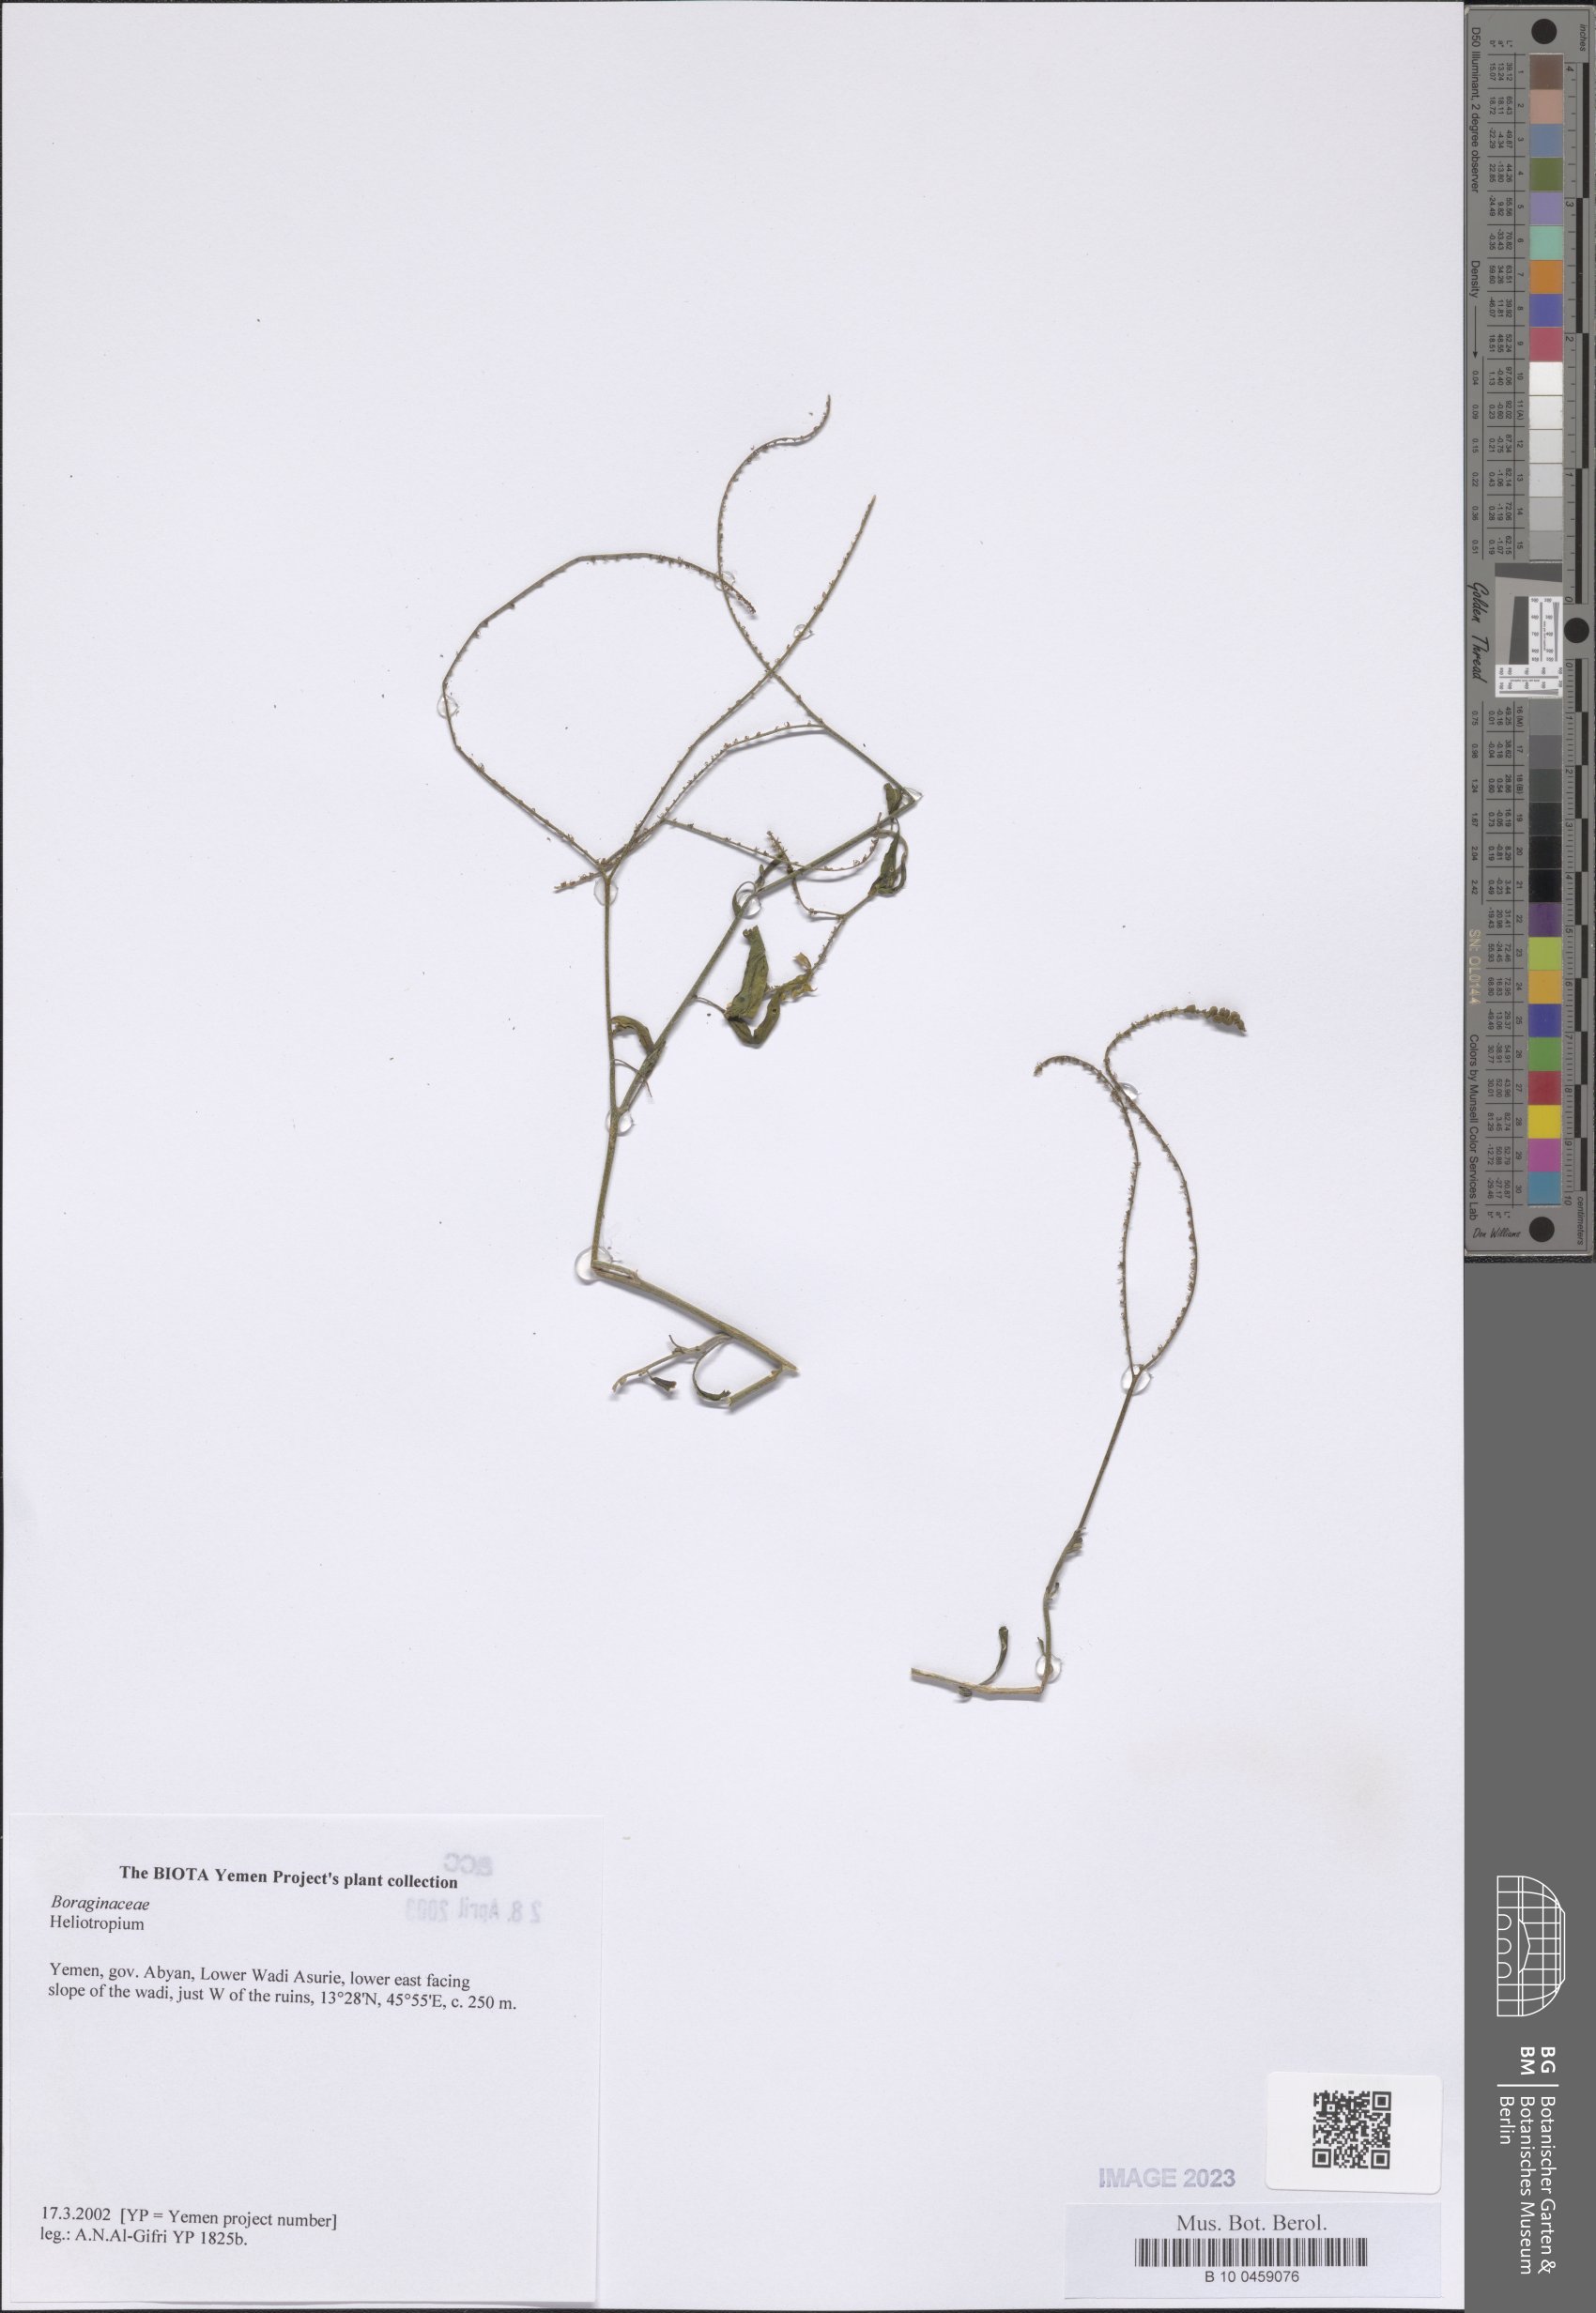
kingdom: Plantae
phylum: Tracheophyta
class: Magnoliopsida
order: Boraginales
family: Heliotropiaceae
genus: Heliotropium
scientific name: Heliotropium
